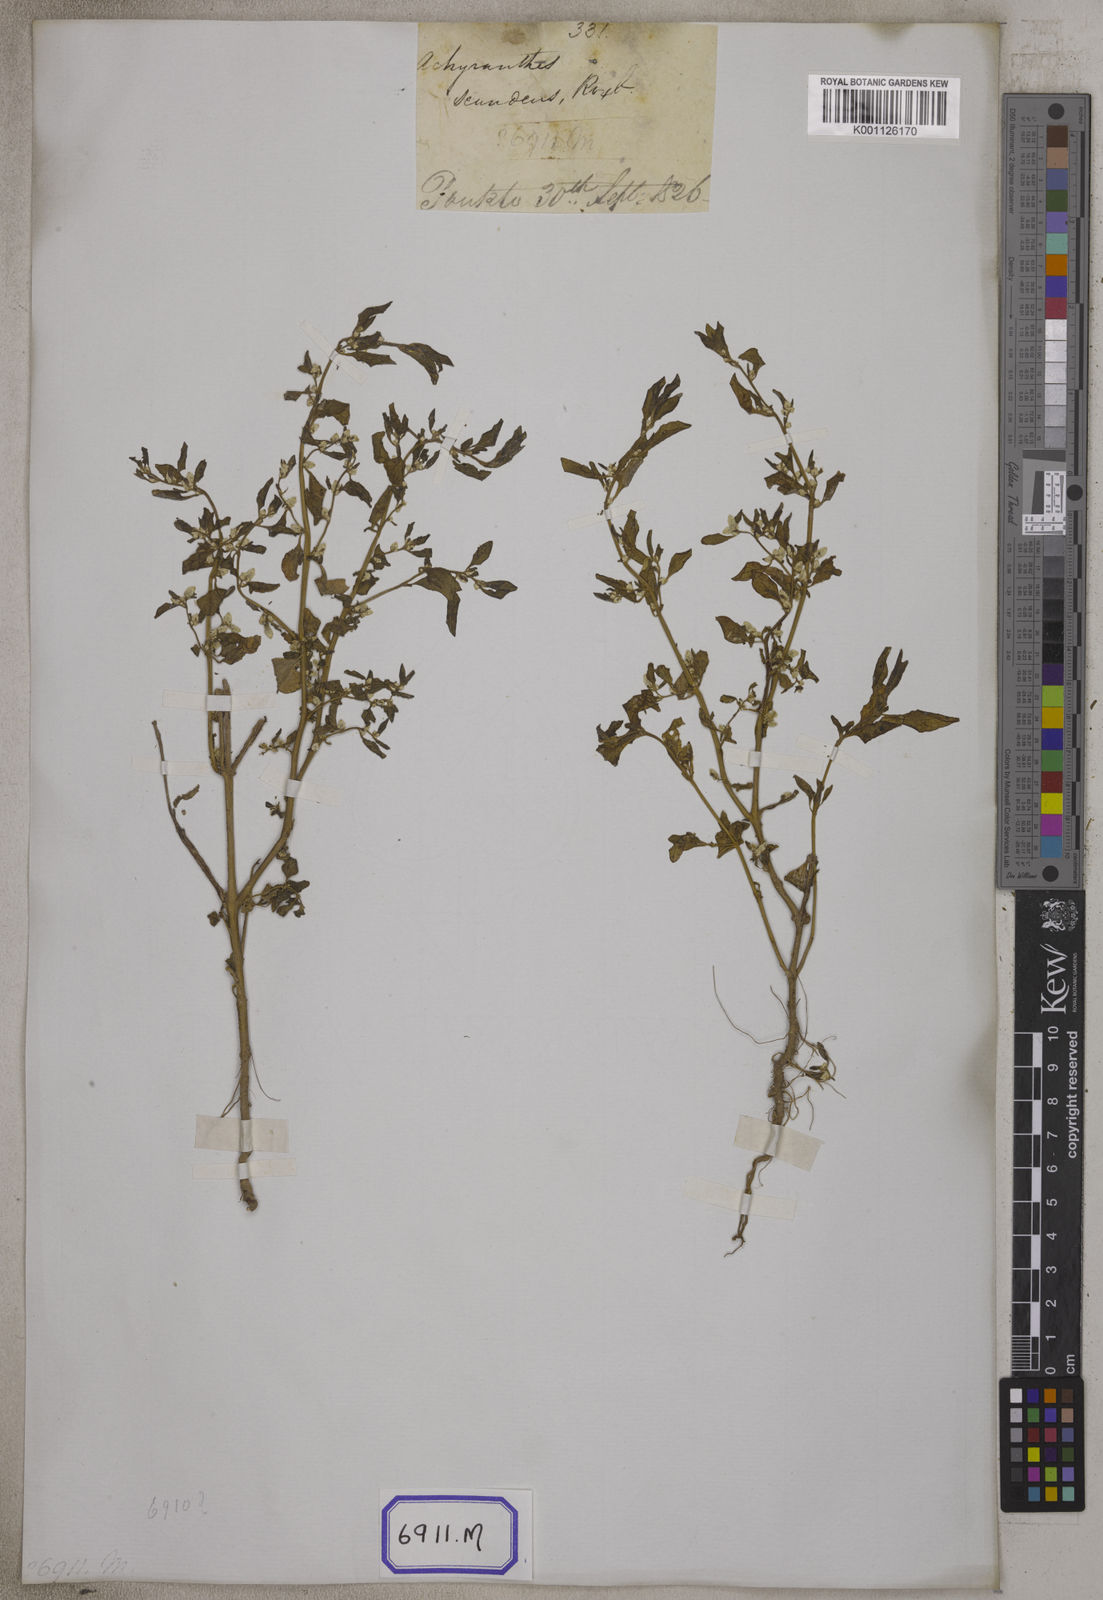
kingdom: Plantae
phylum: Tracheophyta
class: Magnoliopsida
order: Caryophyllales
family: Amaranthaceae
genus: Ouret
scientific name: Ouret sanguinolenta
